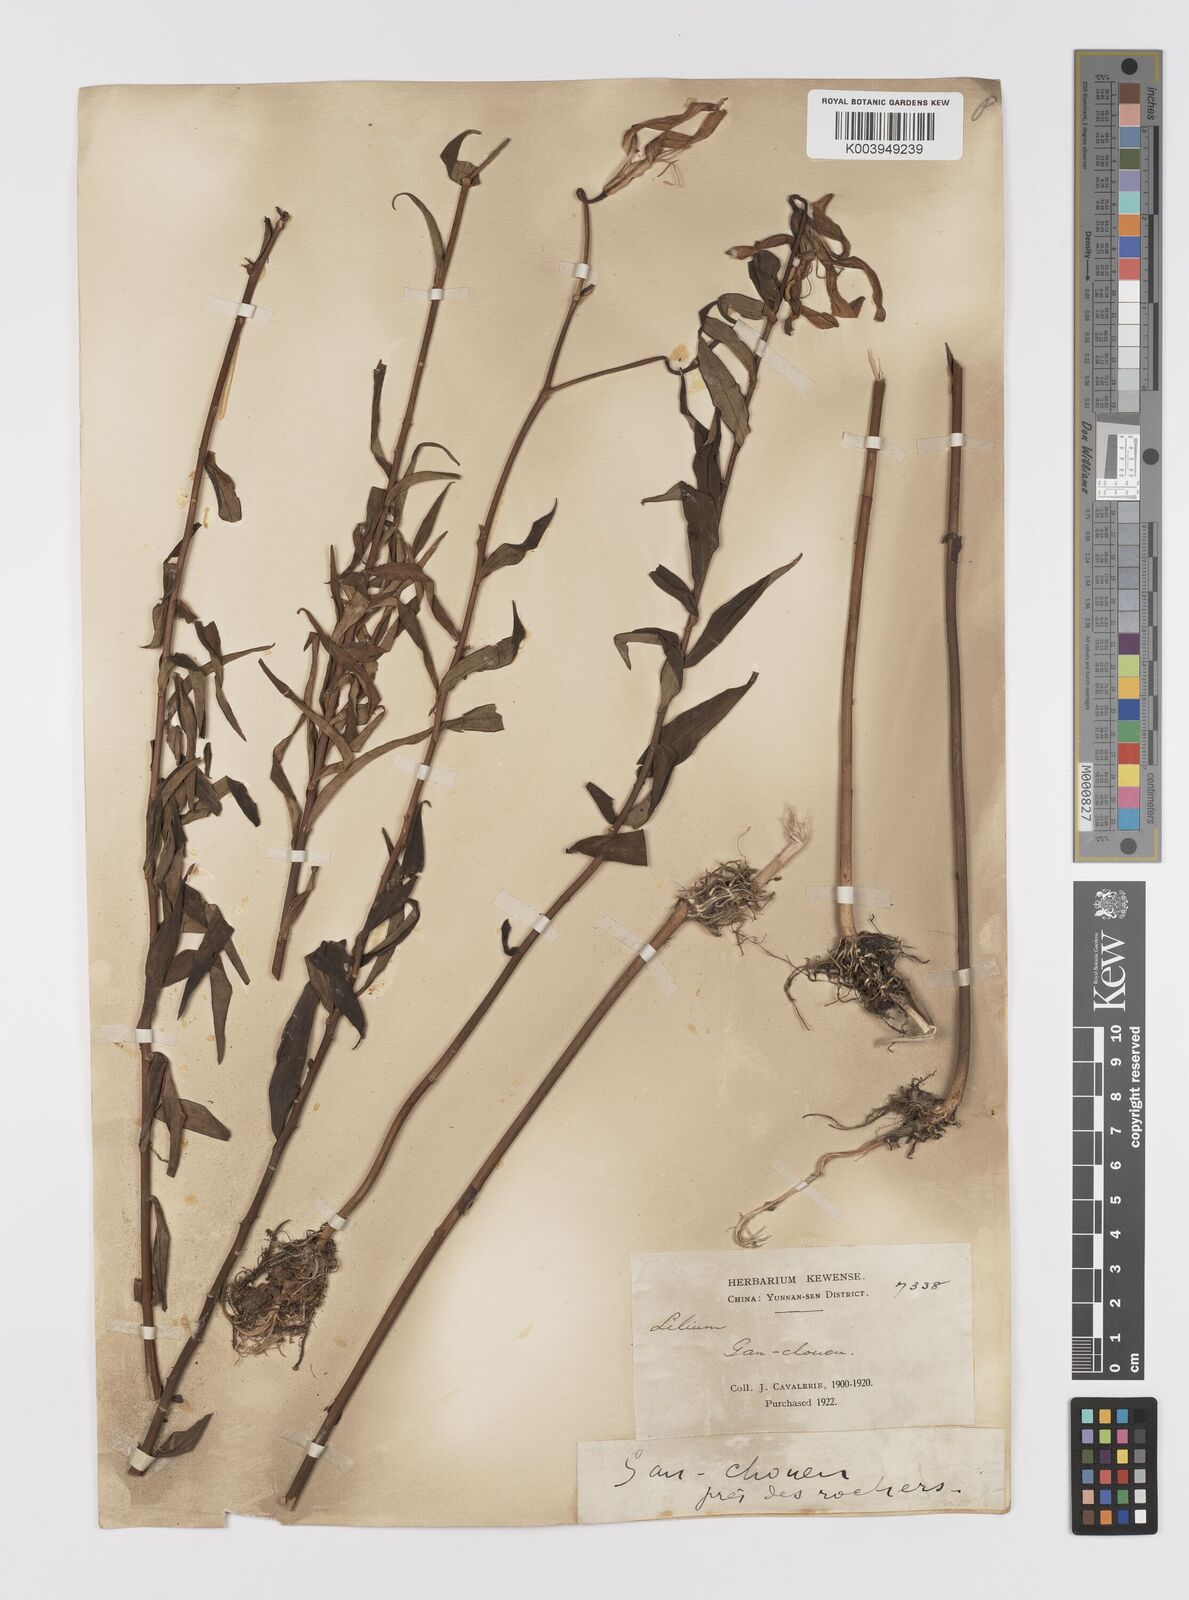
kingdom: Plantae
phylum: Tracheophyta
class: Liliopsida
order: Liliales
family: Liliaceae
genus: Lilium
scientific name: Lilium primulinum
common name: Ochre lily
